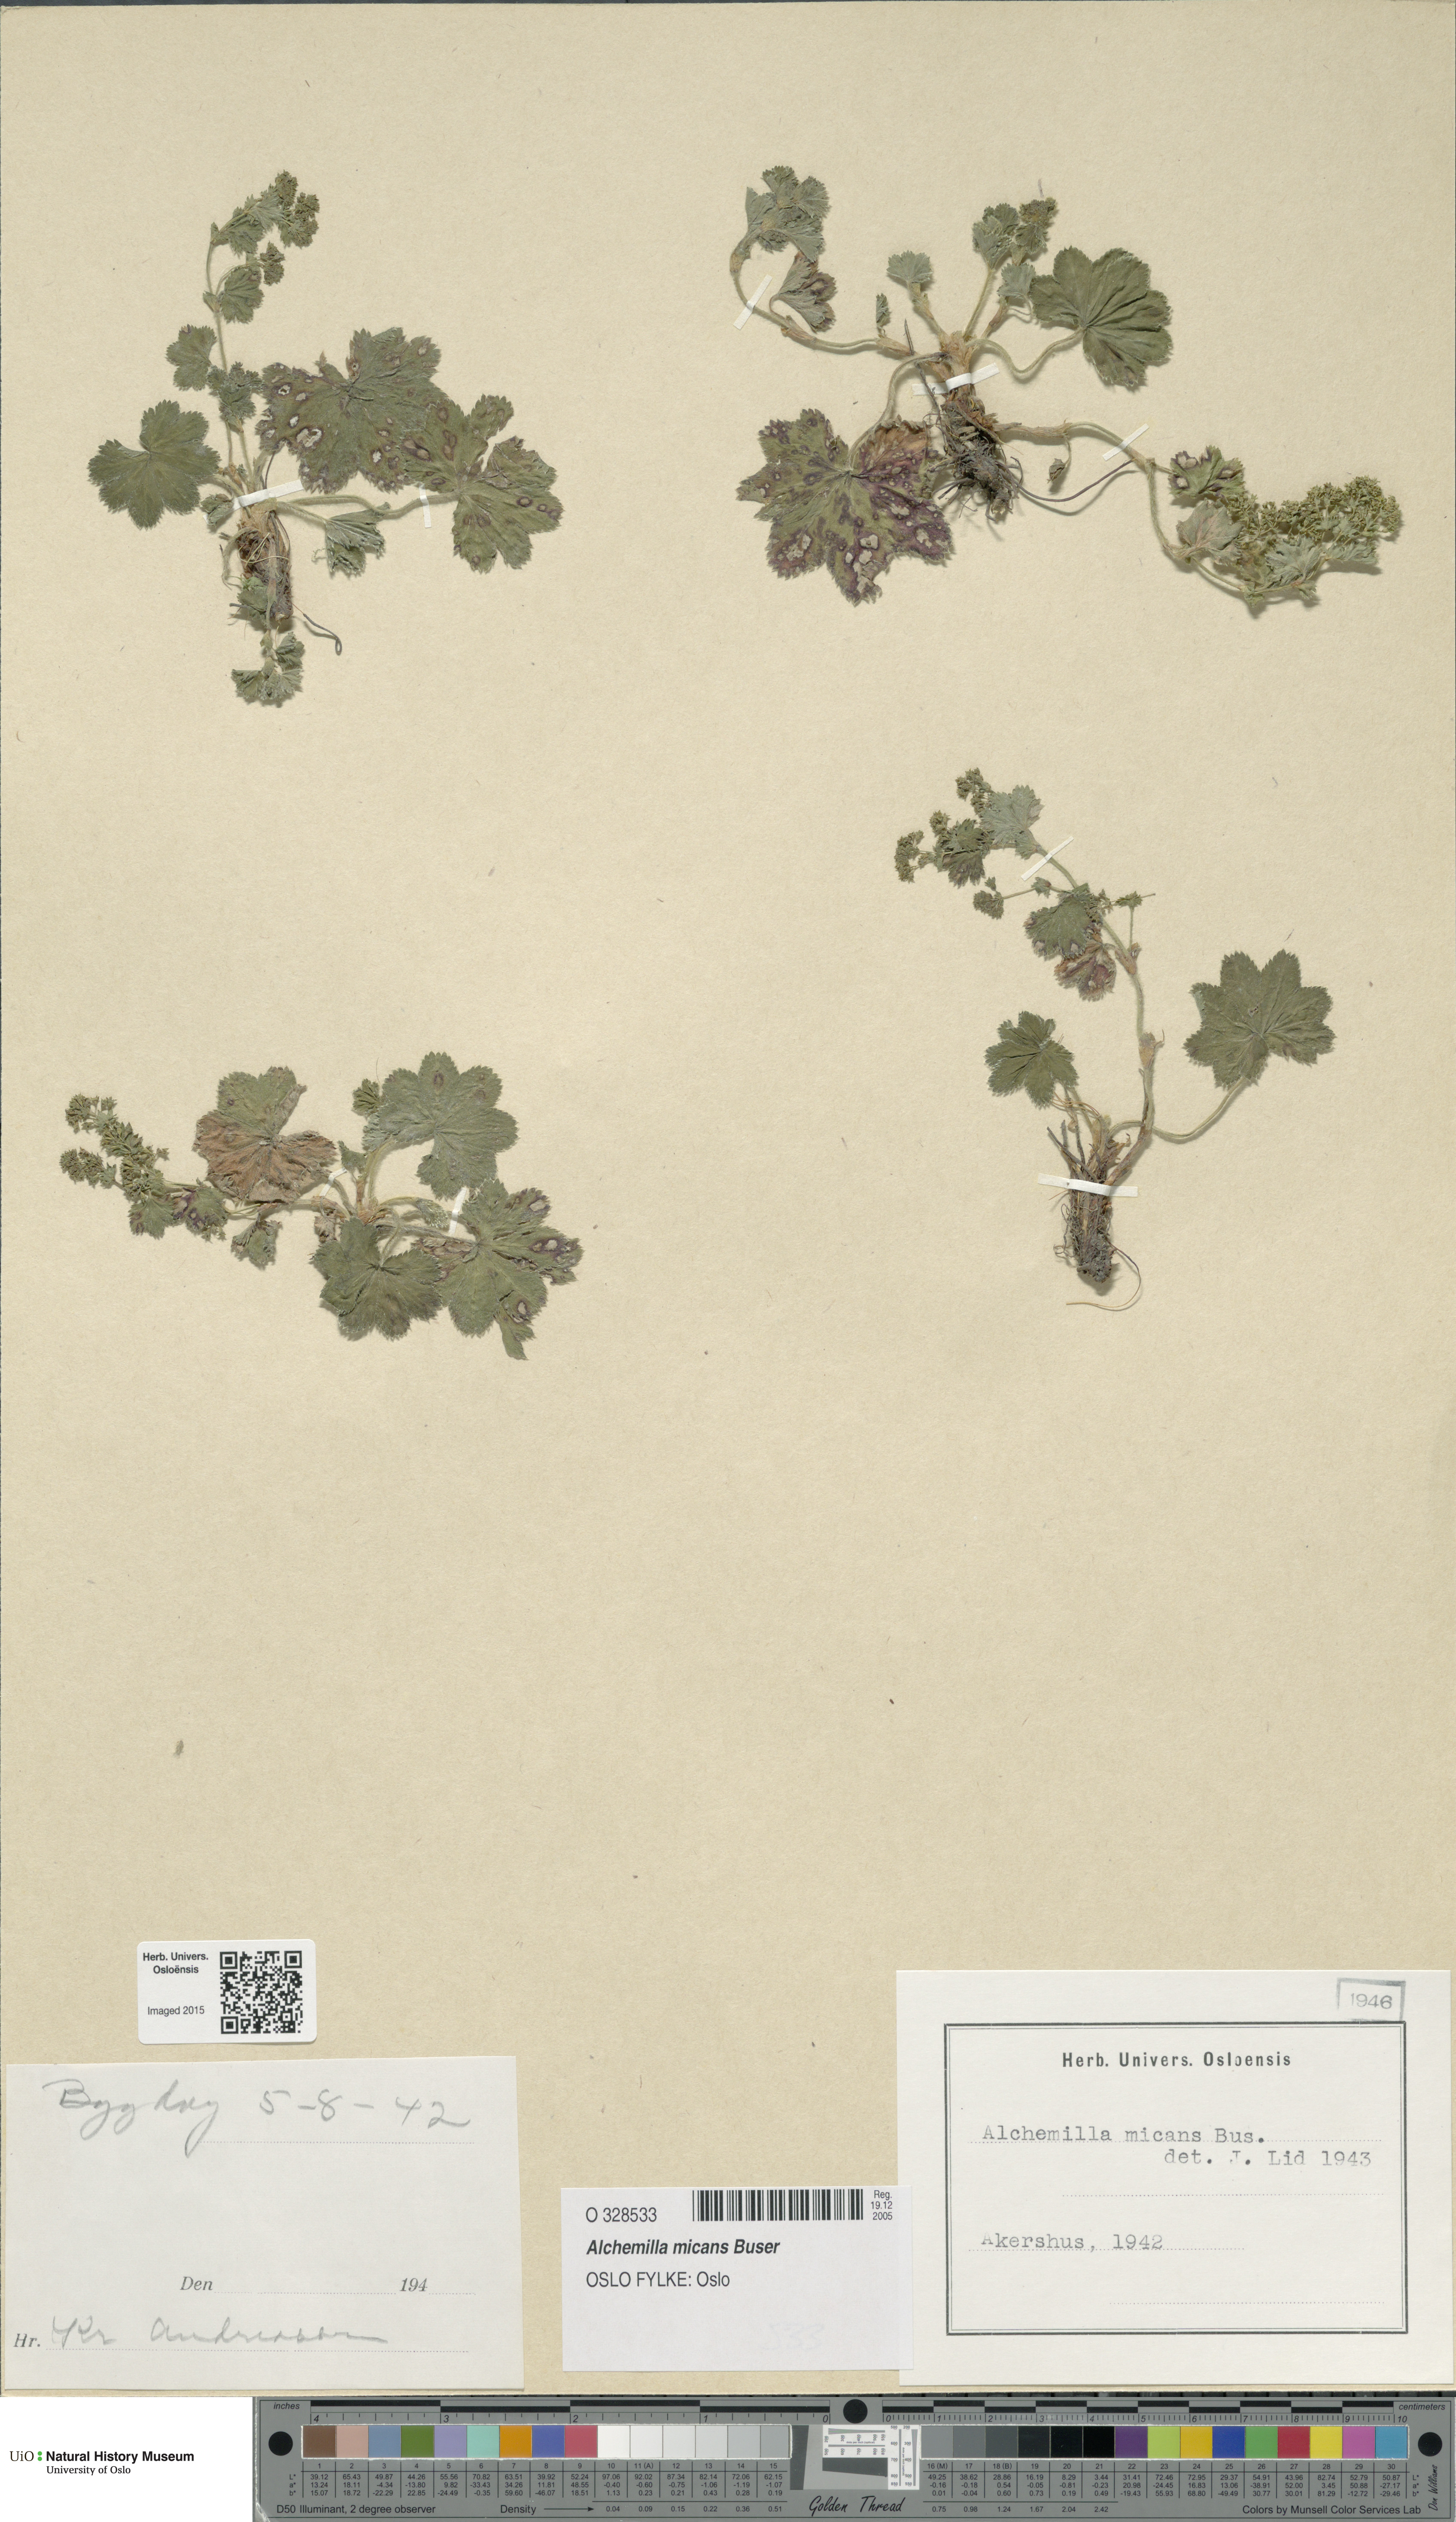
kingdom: Plantae
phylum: Tracheophyta
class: Magnoliopsida
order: Rosales
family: Rosaceae
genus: Alchemilla
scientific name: Alchemilla micans
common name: Gleaming lady's mantle
